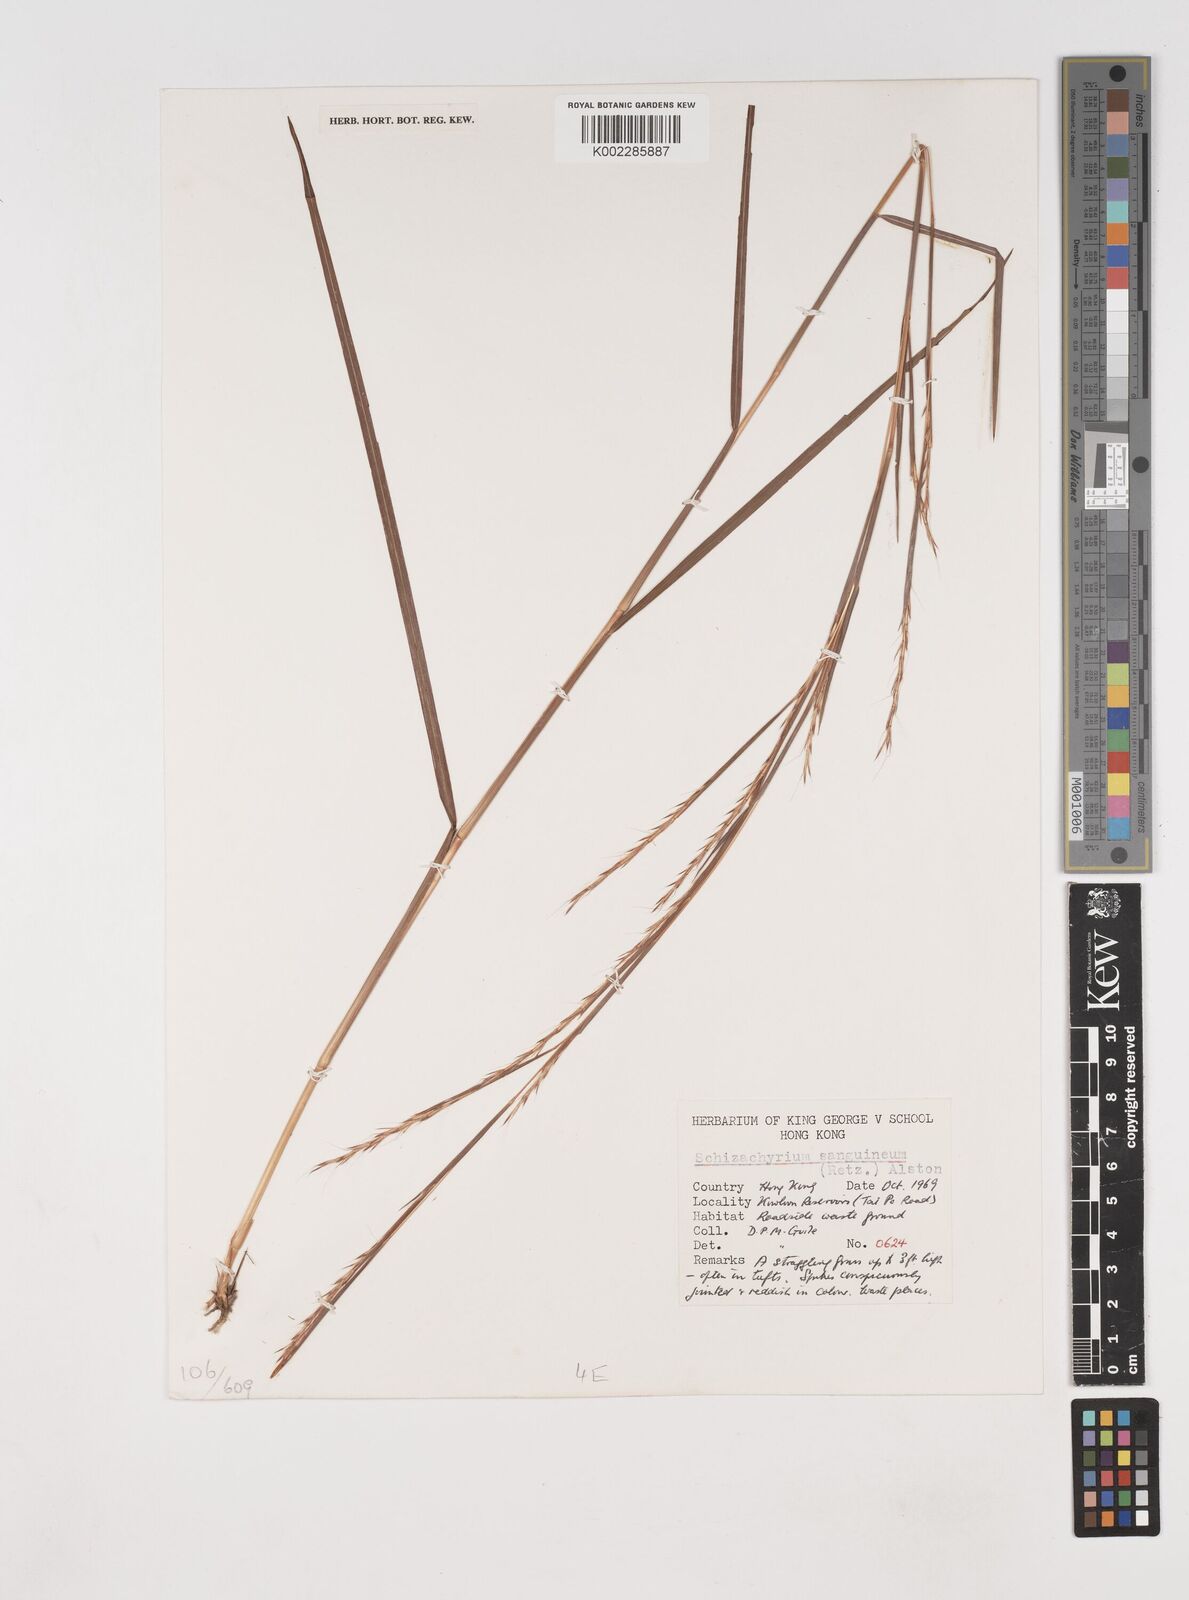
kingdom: Plantae
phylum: Tracheophyta
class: Liliopsida
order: Poales
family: Poaceae
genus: Schizachyrium
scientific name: Schizachyrium sanguineum
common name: Crimson bluestem
